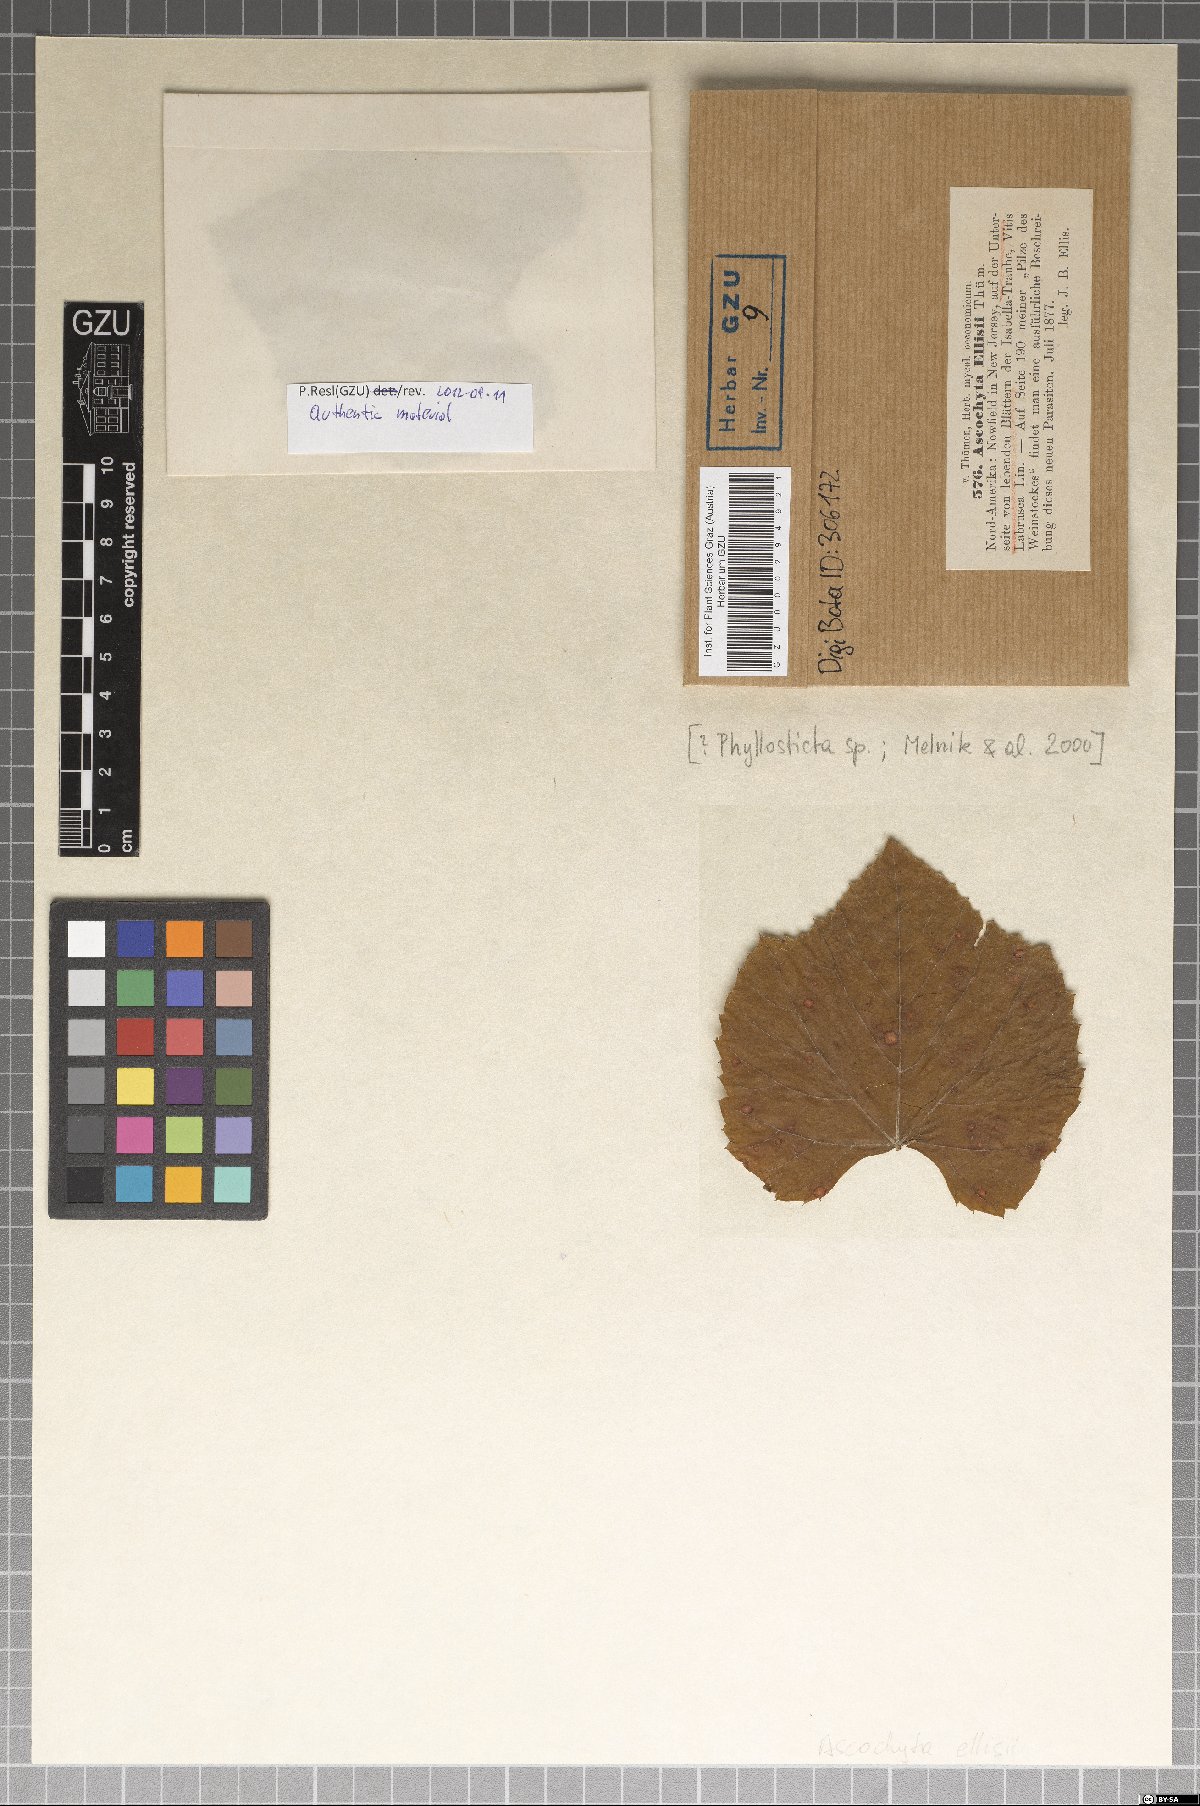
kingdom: Fungi
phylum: Ascomycota
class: Dothideomycetes
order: Pleosporales
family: Didymellaceae
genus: Ascochyta
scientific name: Ascochyta
